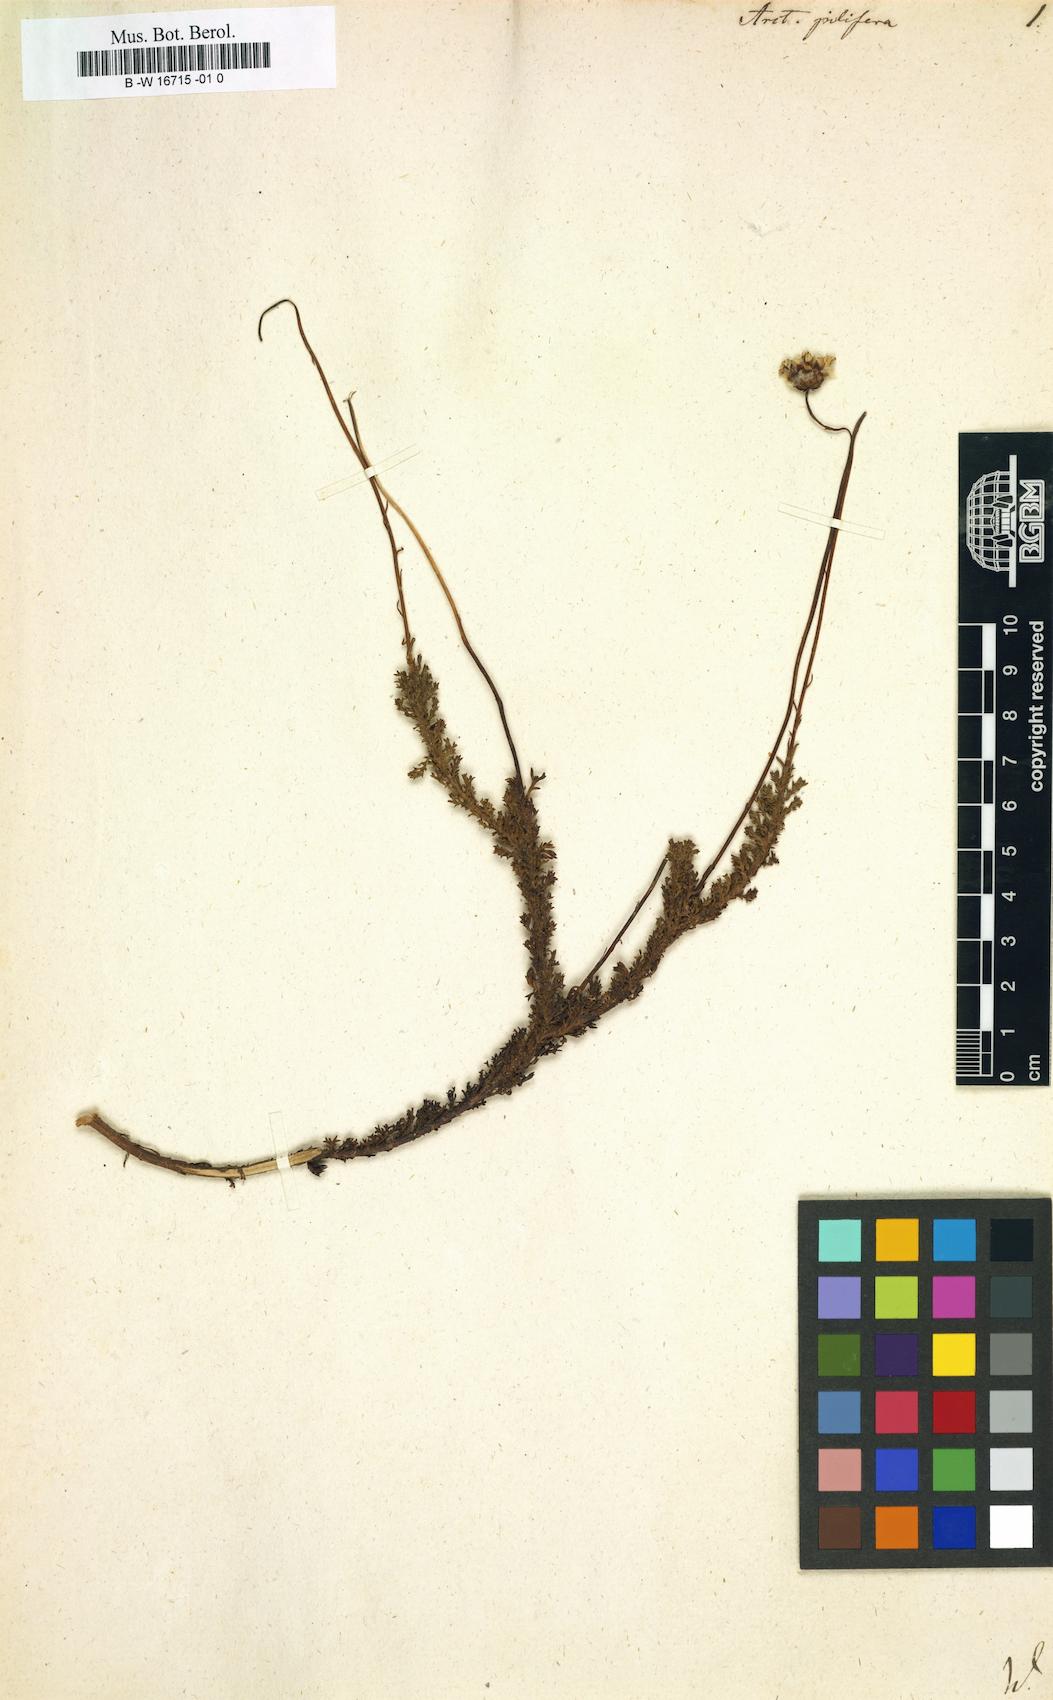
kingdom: Plantae
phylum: Tracheophyta
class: Magnoliopsida
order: Asterales
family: Asteraceae
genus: Ursinia
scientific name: Ursinia
